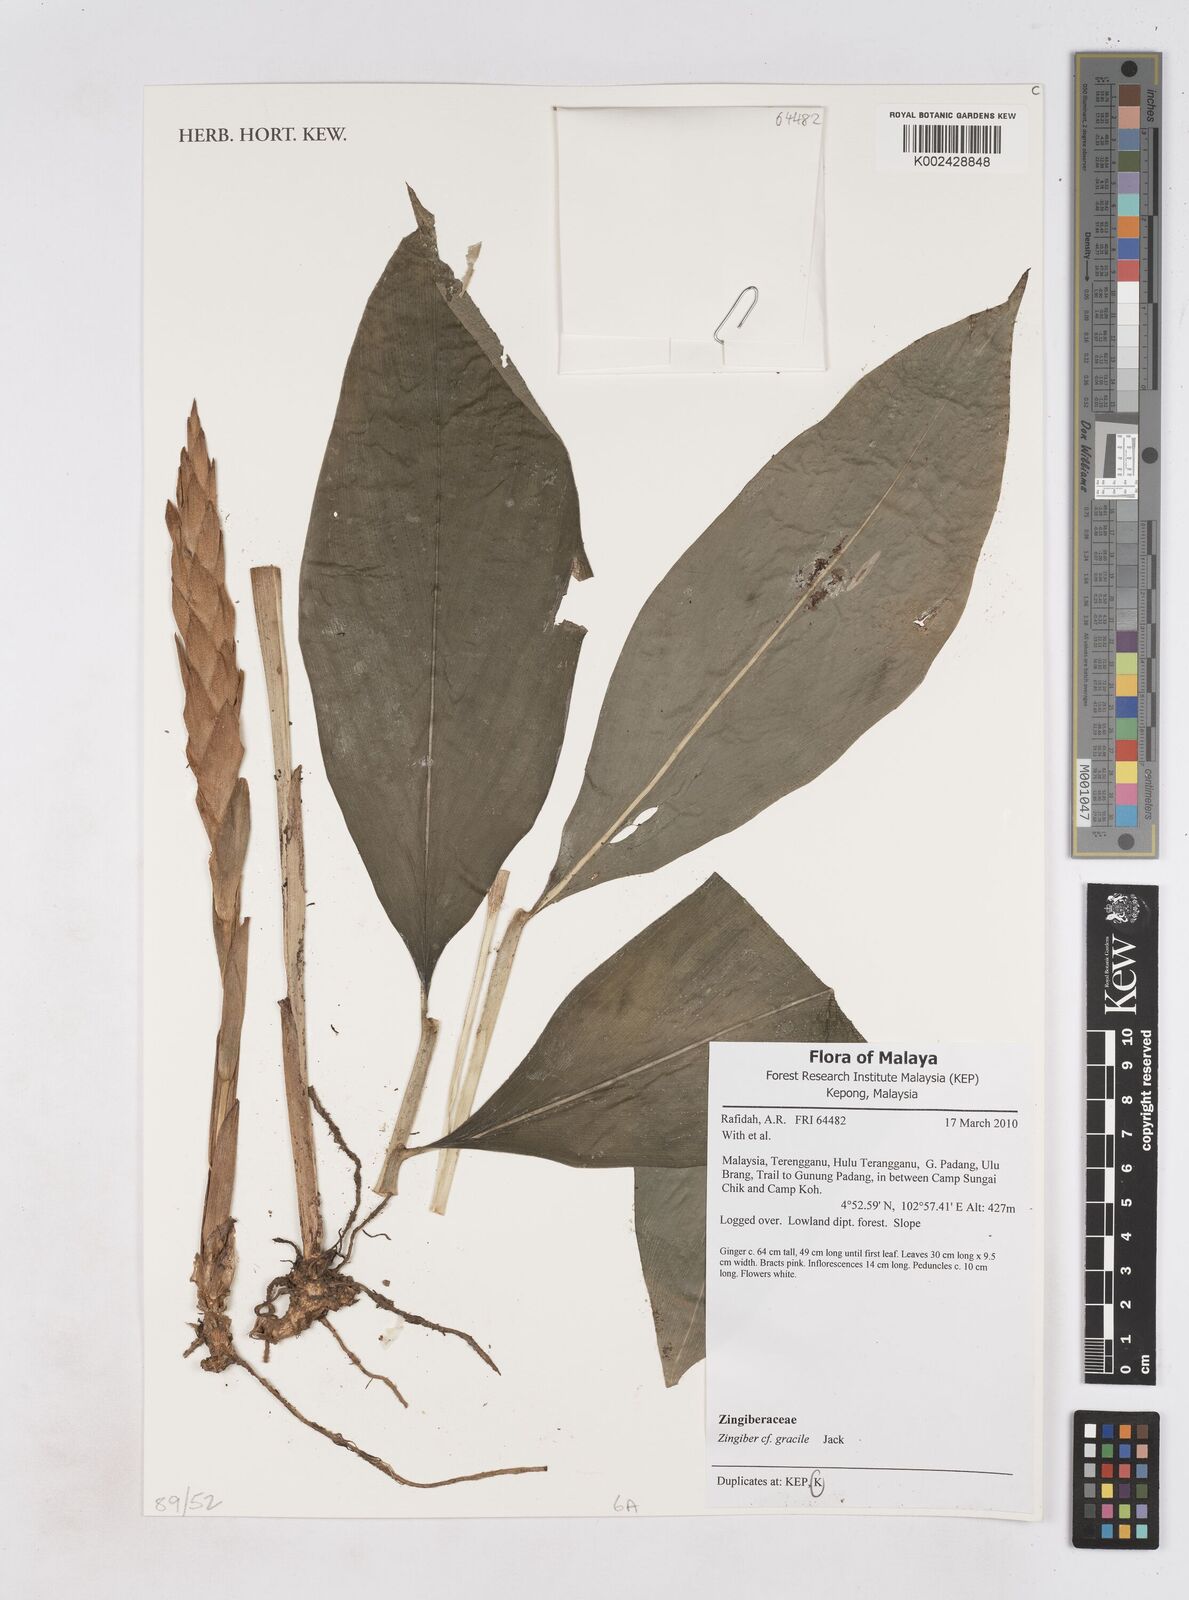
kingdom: Plantae
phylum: Tracheophyta
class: Liliopsida
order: Zingiberales
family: Zingiberaceae
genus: Zingiber
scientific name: Zingiber gracile
